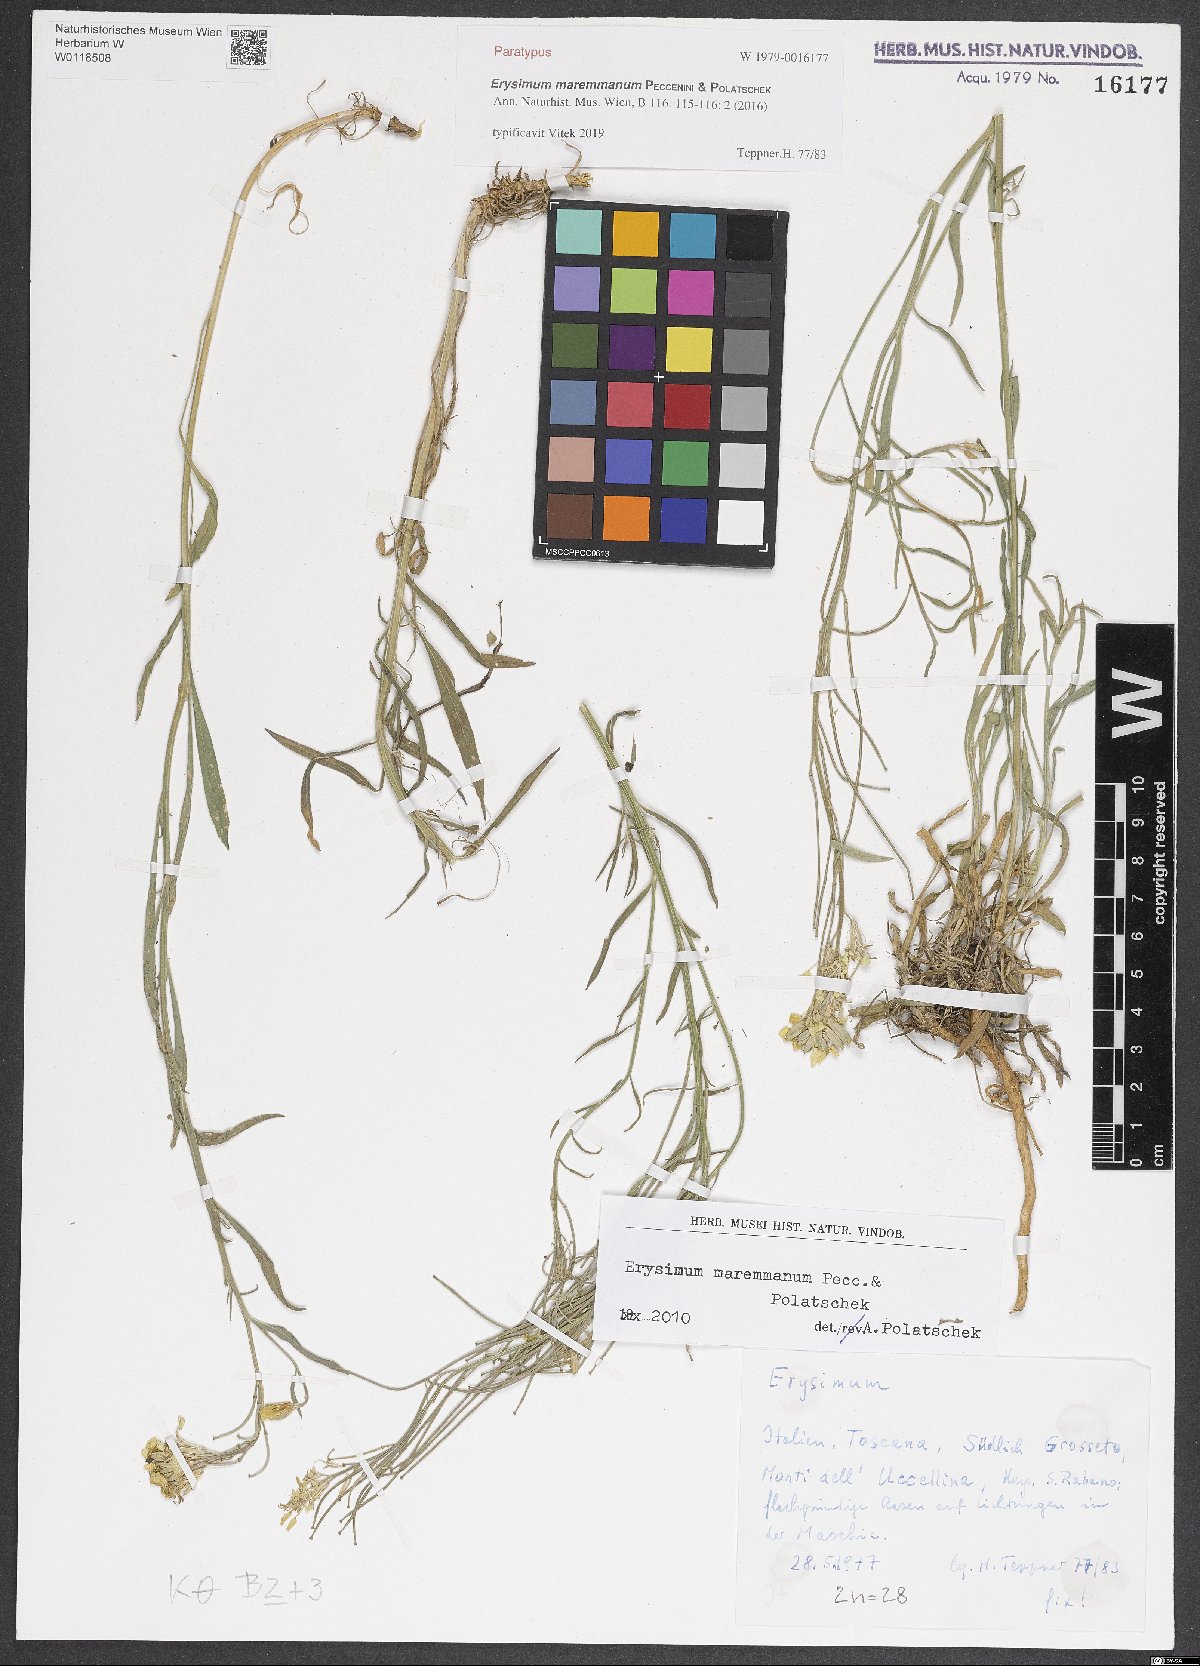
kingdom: Plantae
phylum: Tracheophyta
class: Magnoliopsida
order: Brassicales
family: Brassicaceae
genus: Erysimum
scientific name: Erysimum maremmanum
